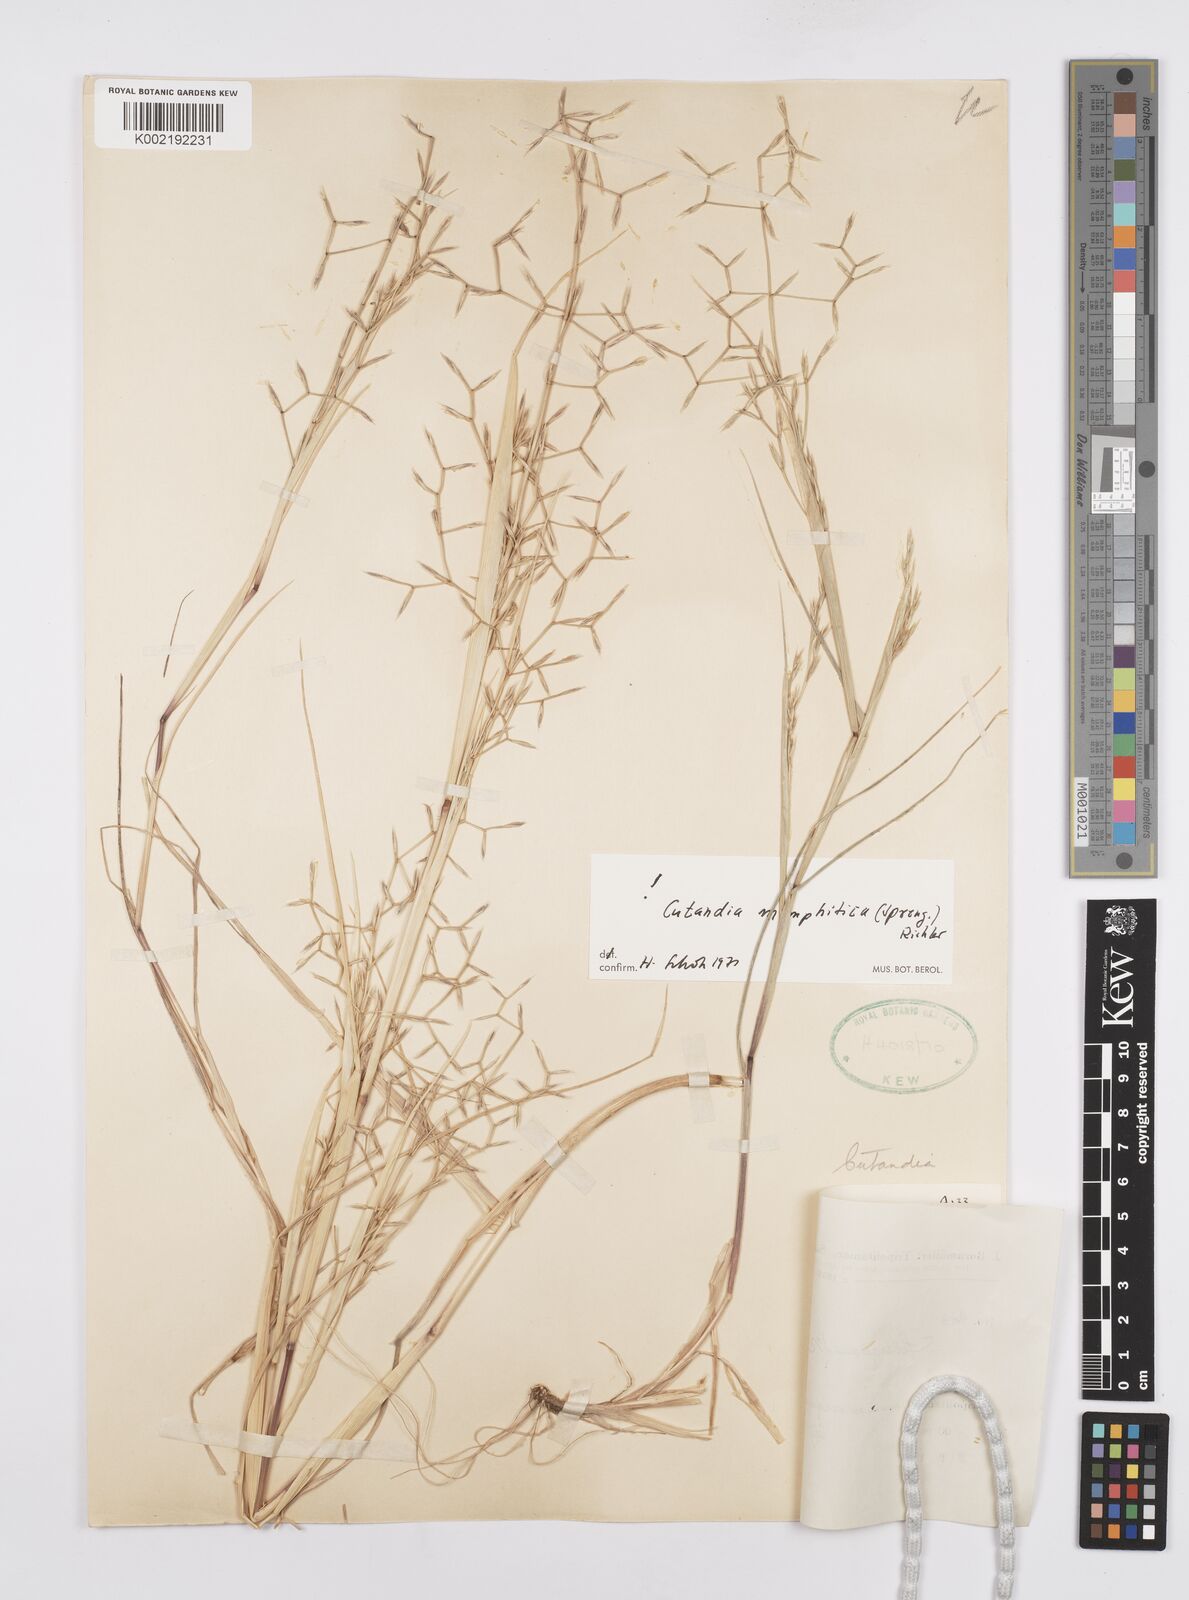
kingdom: Plantae
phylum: Tracheophyta
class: Liliopsida
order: Poales
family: Poaceae
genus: Cutandia
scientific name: Cutandia memphitica
